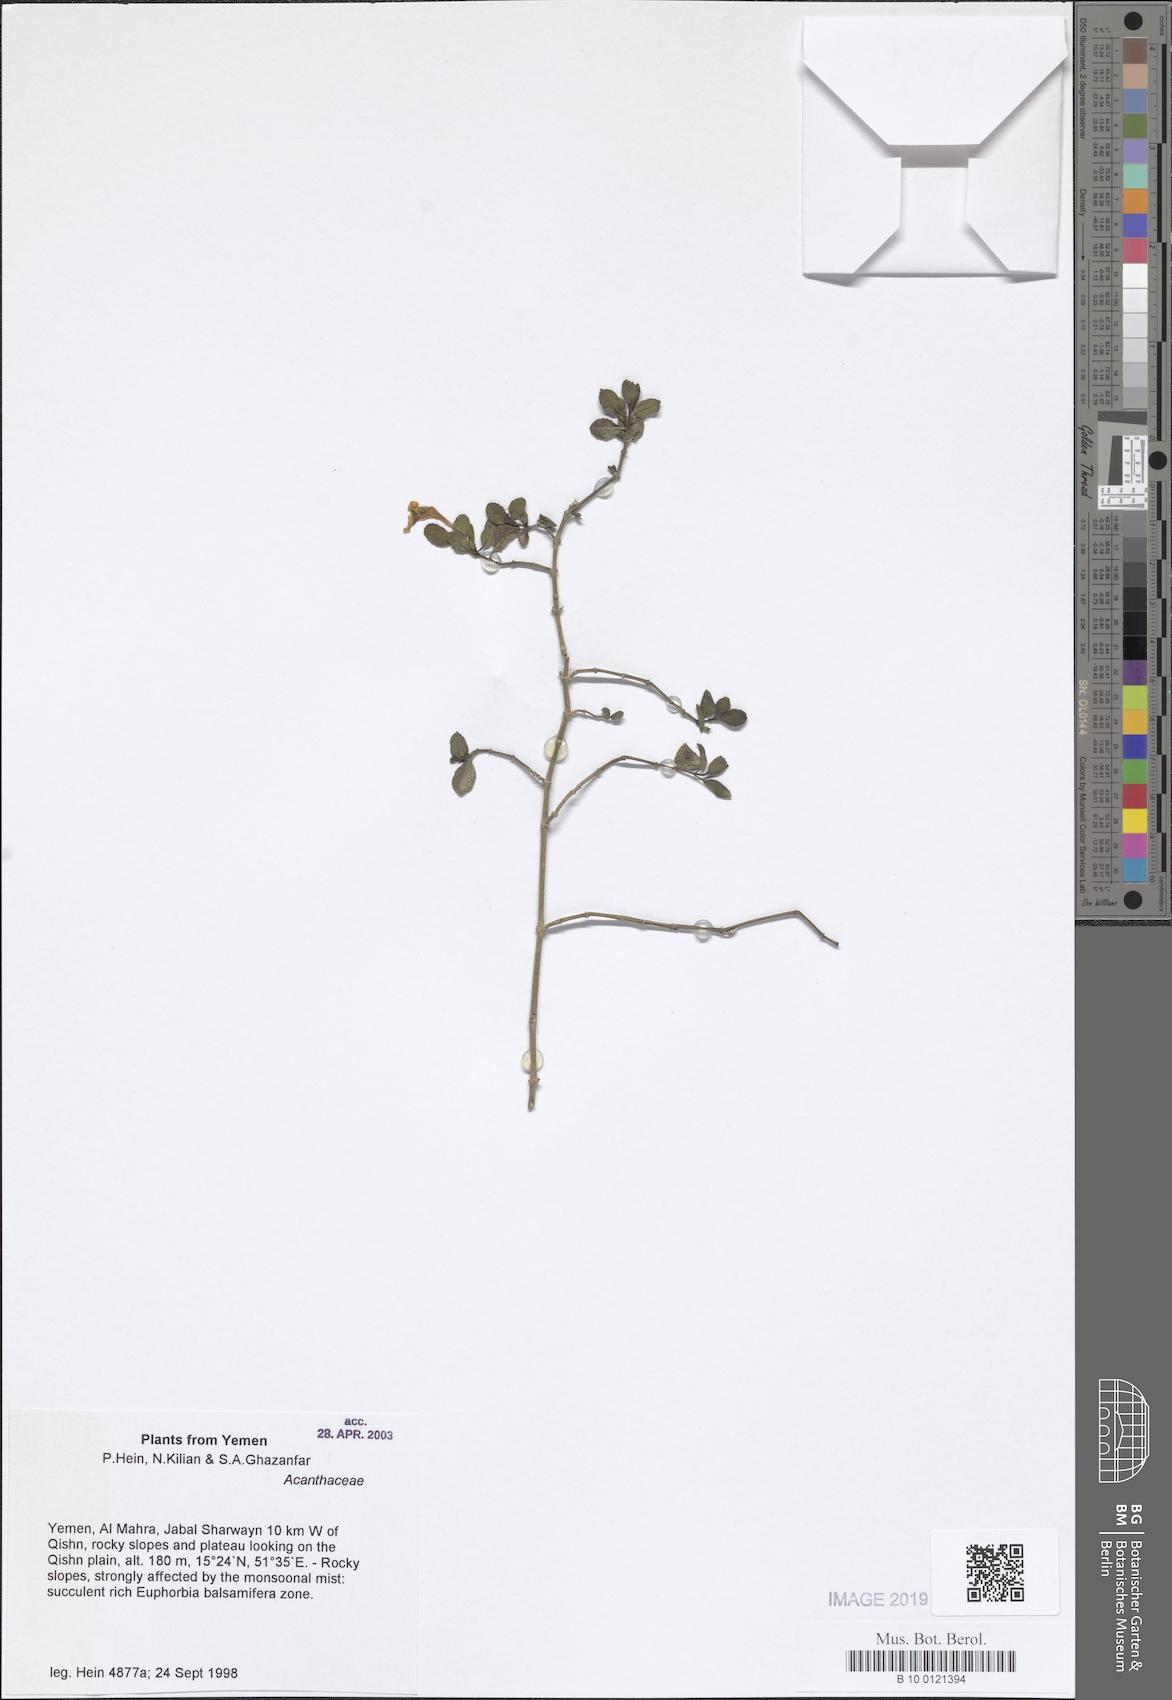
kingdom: Plantae
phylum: Tracheophyta
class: Magnoliopsida
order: Lamiales
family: Acanthaceae
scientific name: Acanthaceae
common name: Acanthaceae
